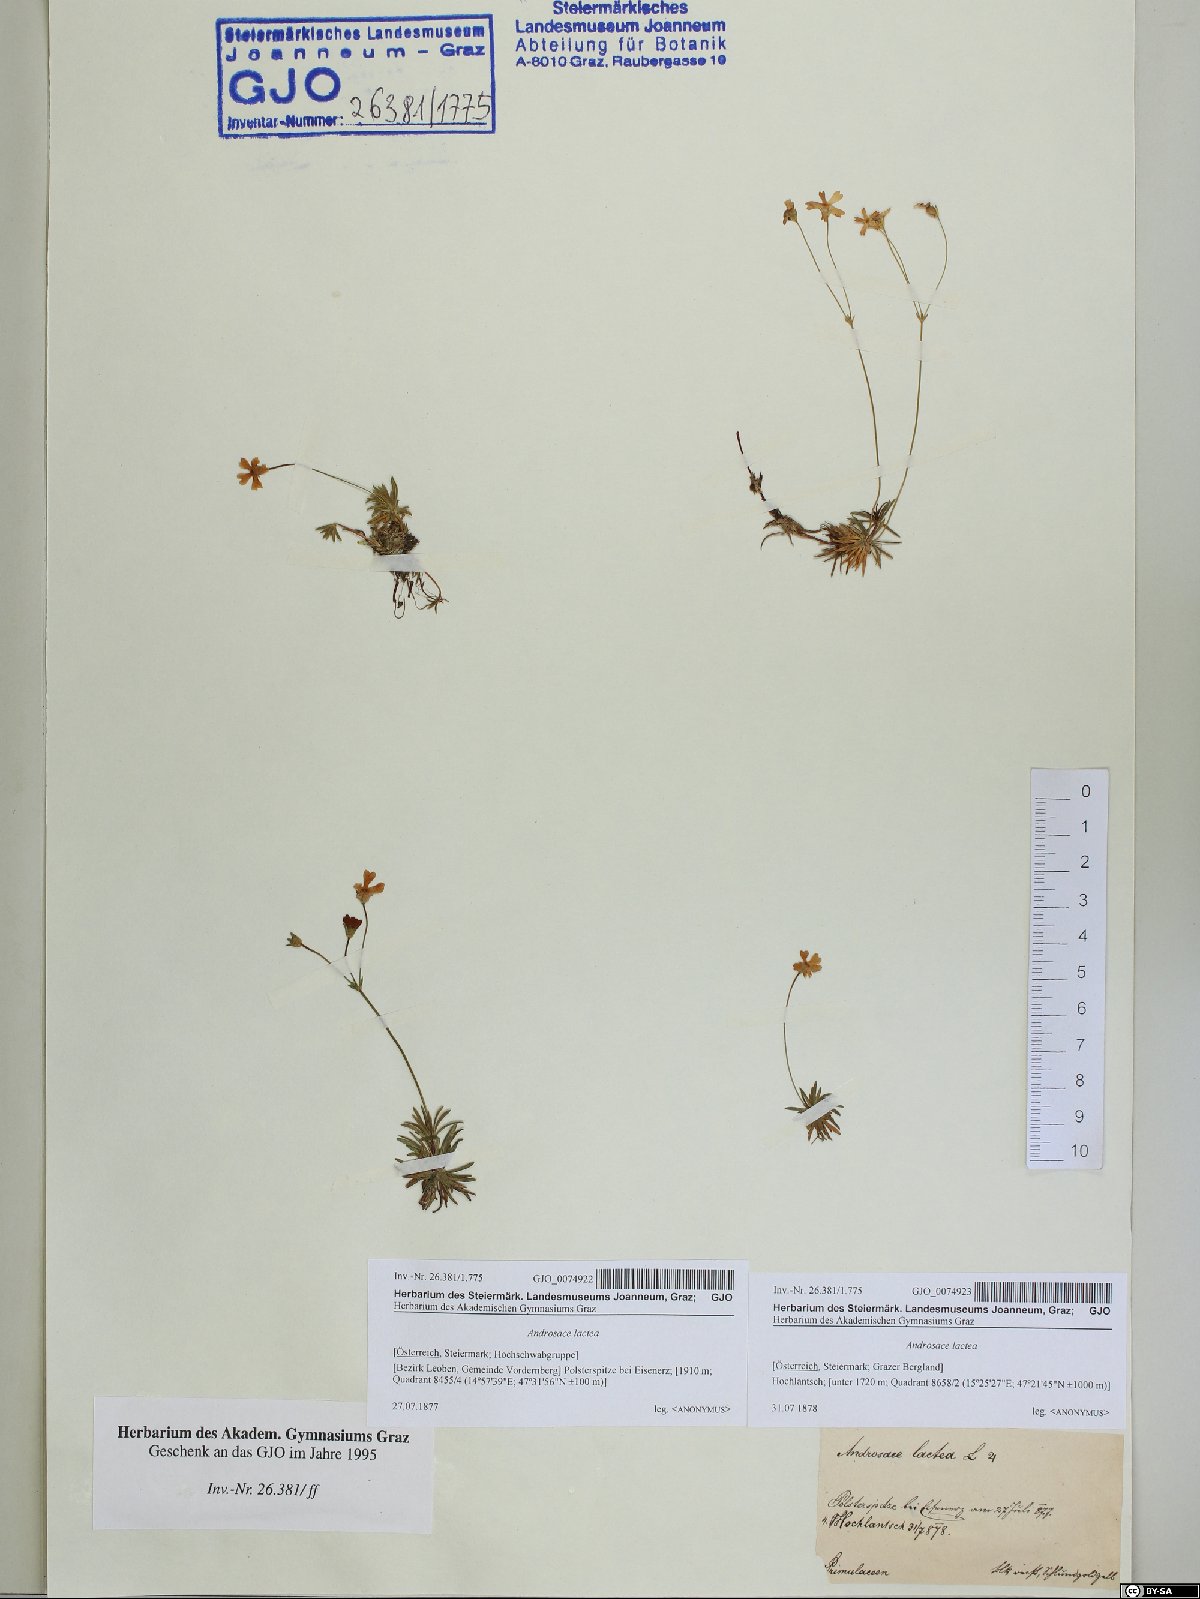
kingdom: Plantae
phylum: Tracheophyta
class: Magnoliopsida
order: Ericales
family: Primulaceae
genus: Androsace
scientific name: Androsace lactea
